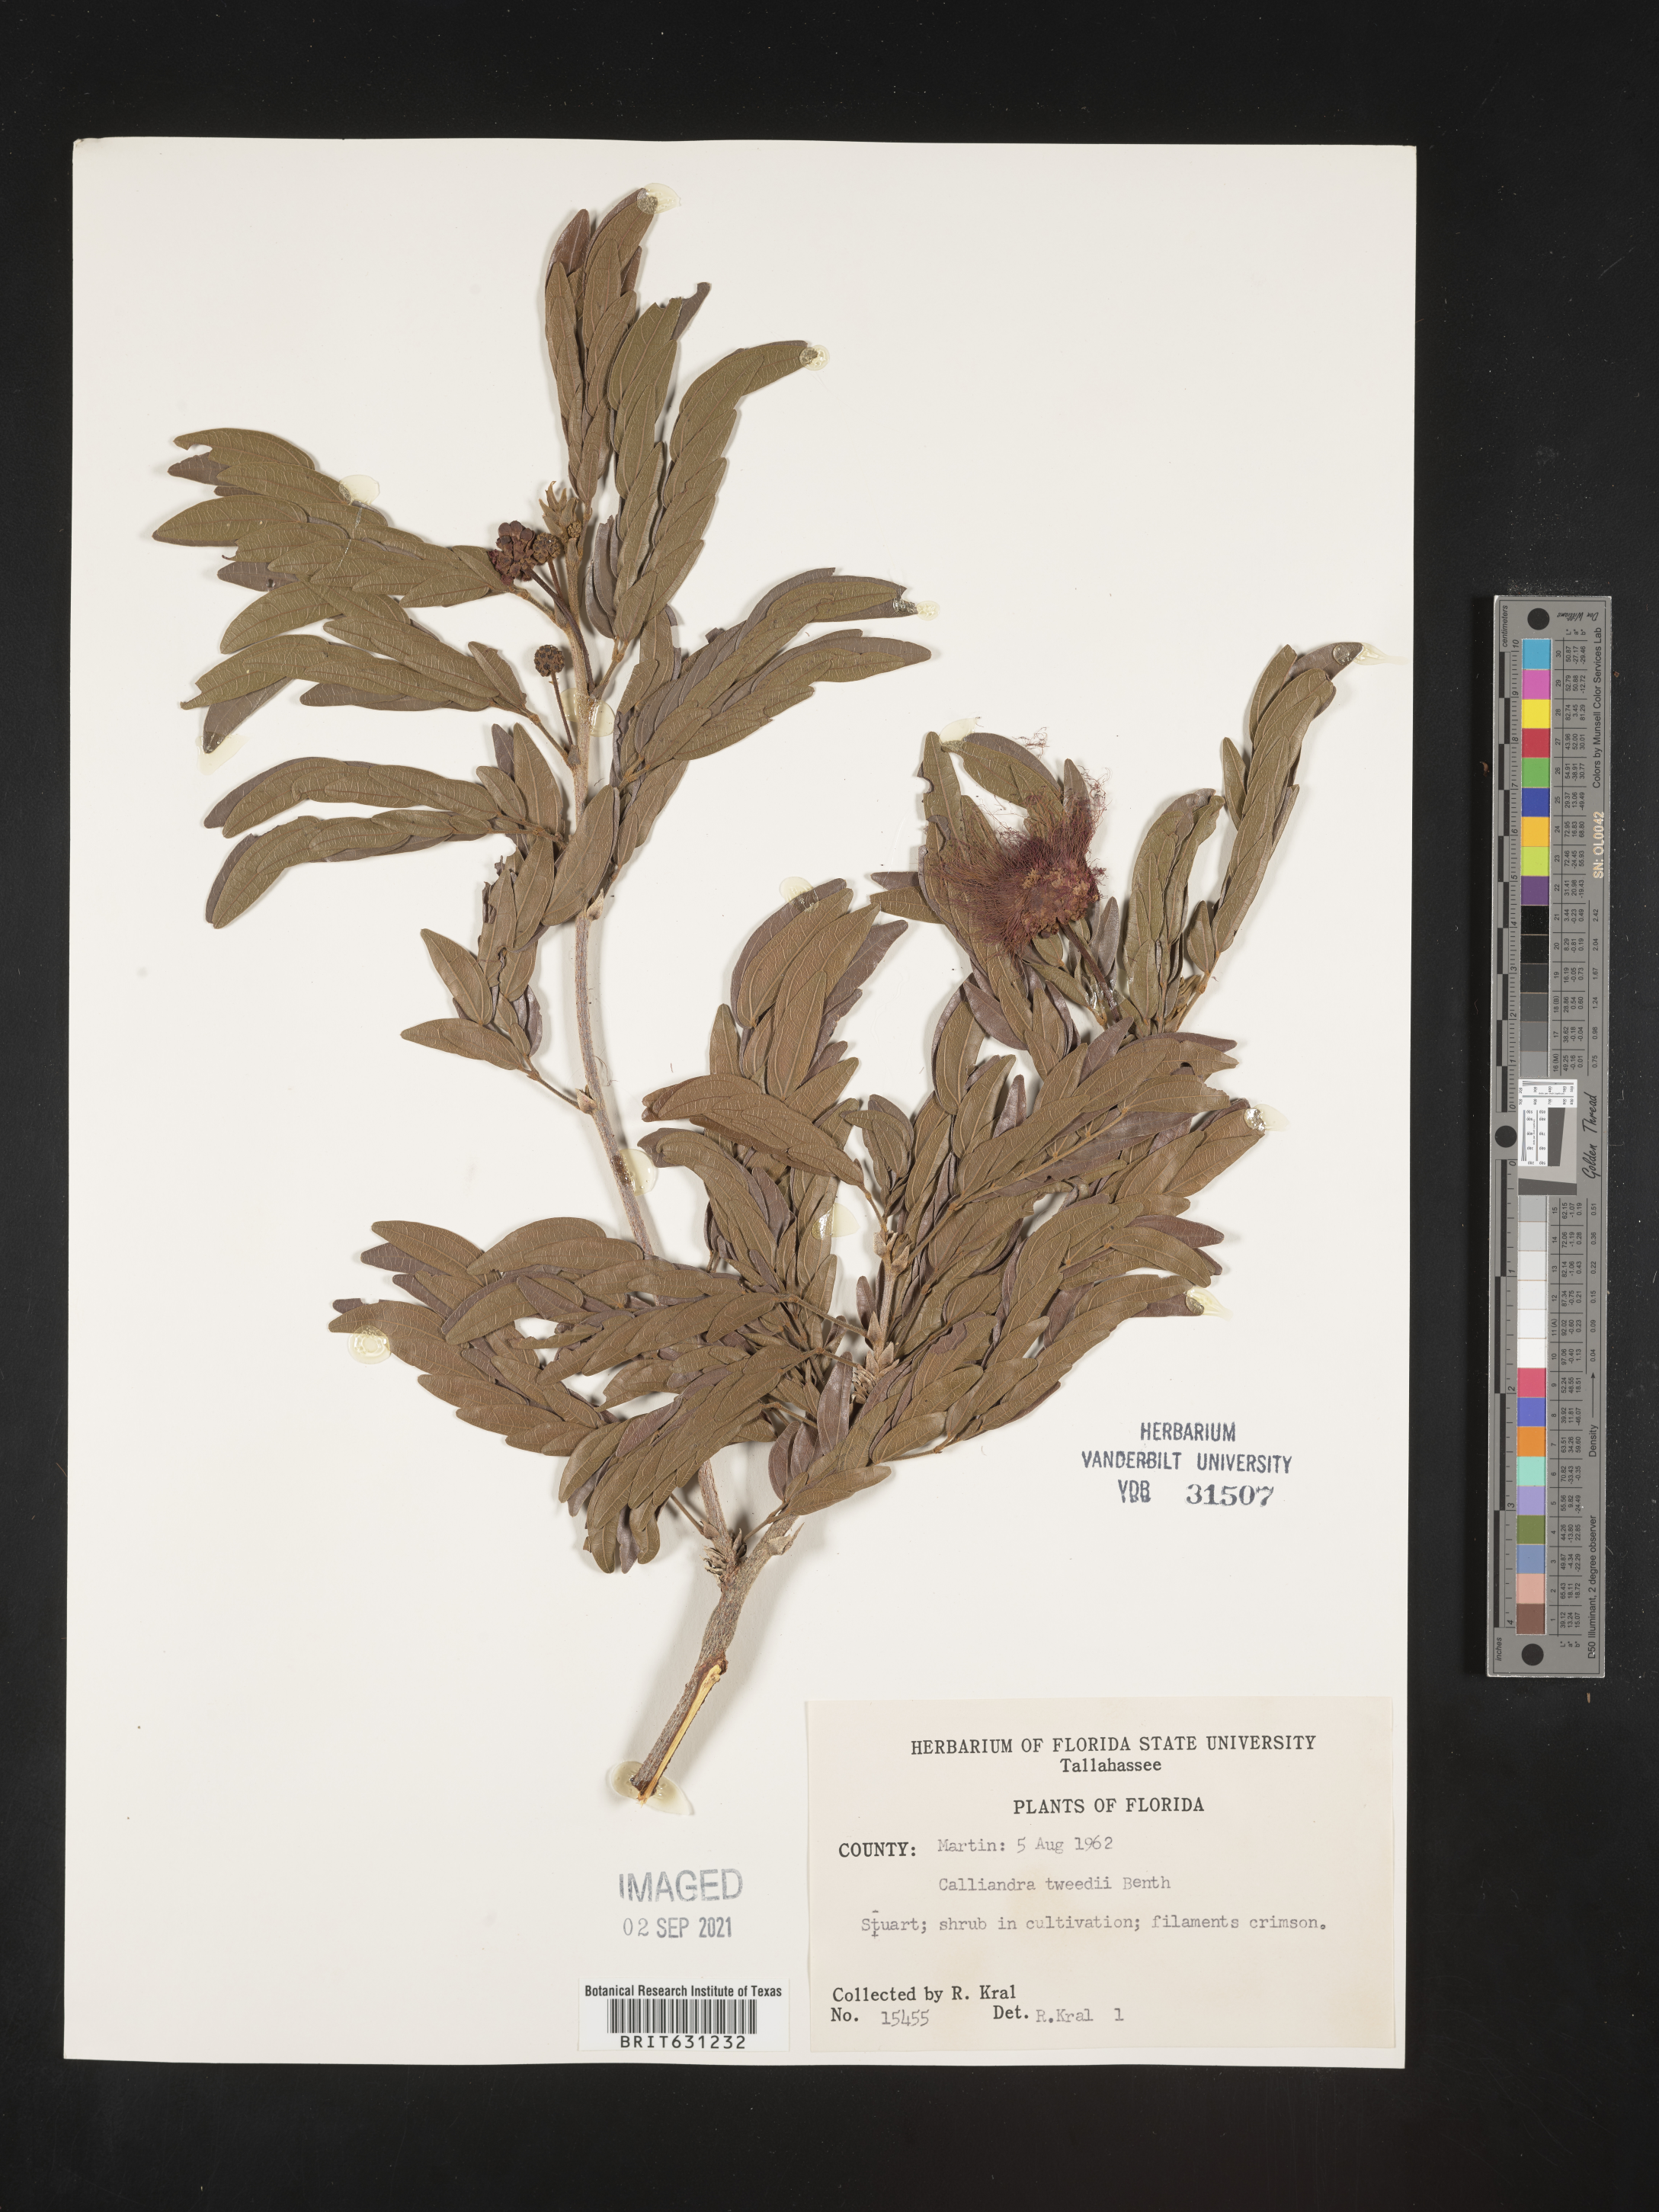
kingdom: Plantae
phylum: Tracheophyta
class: Magnoliopsida
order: Fabales
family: Fabaceae
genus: Calliandra
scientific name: Calliandra tweedii
